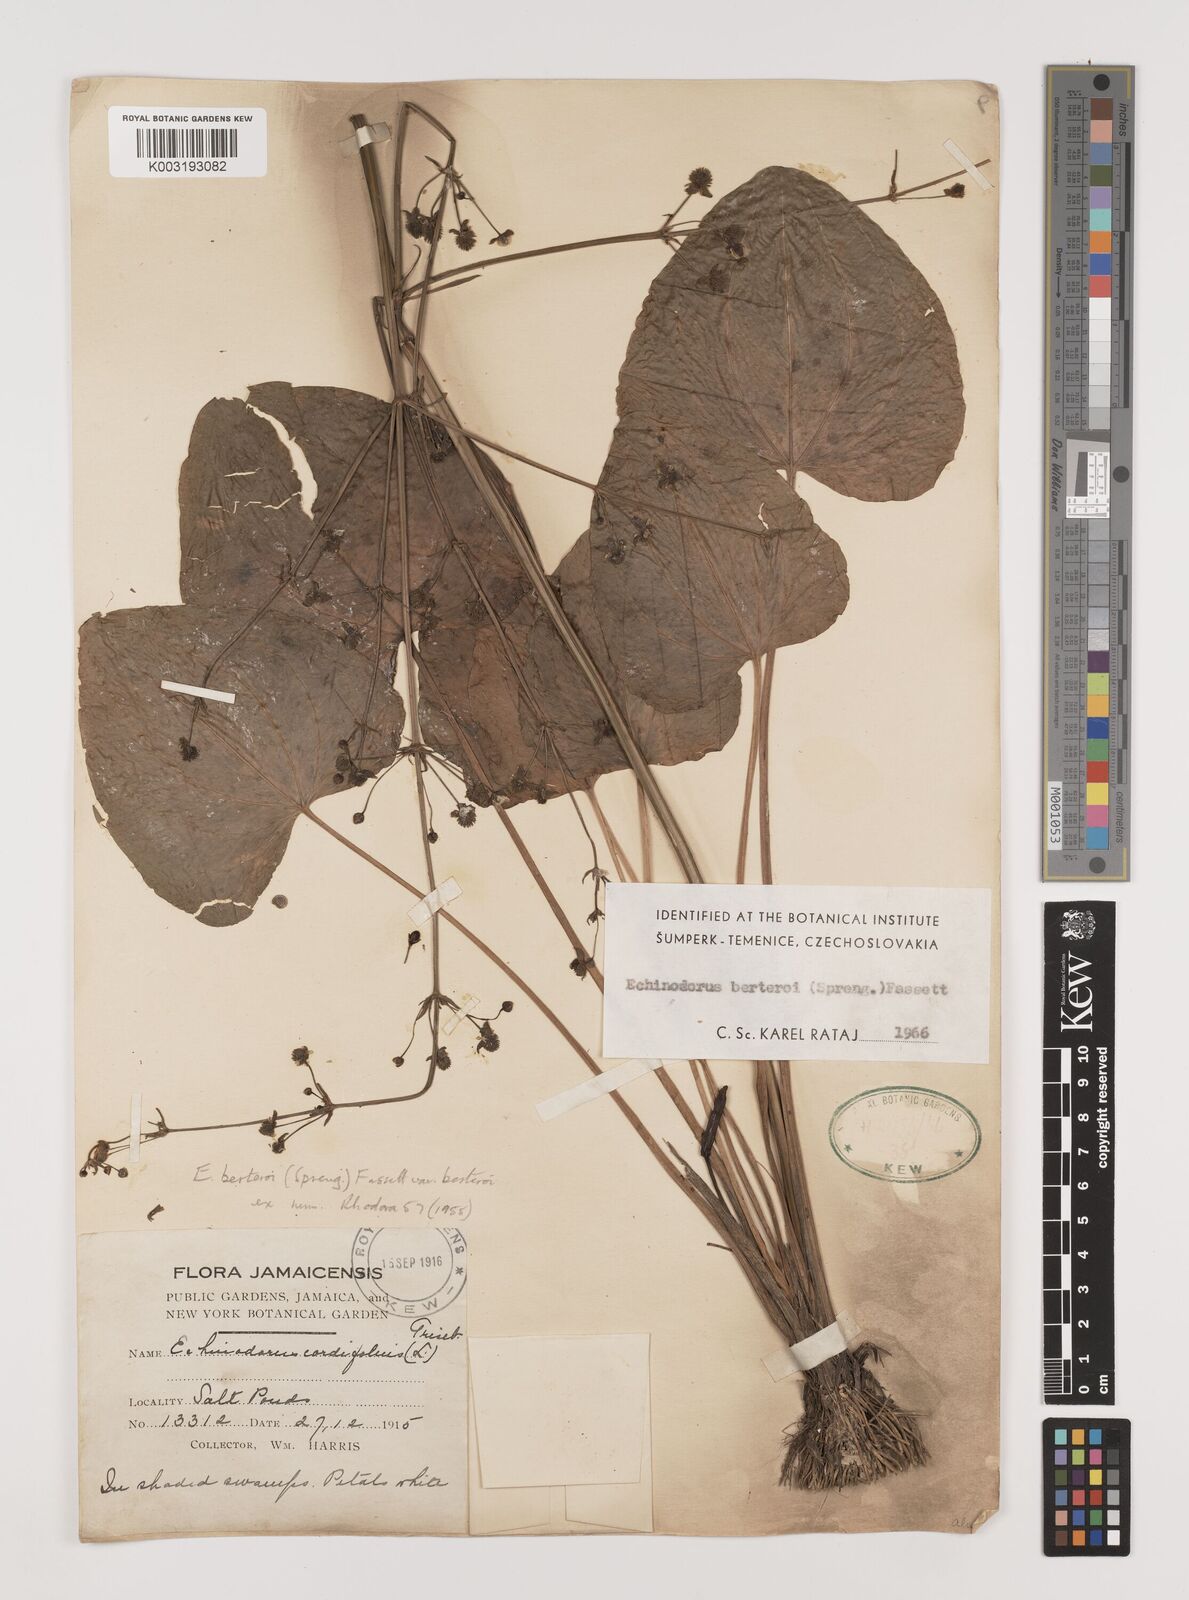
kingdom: Plantae
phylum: Tracheophyta
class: Liliopsida
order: Alismatales
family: Alismataceae
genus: Echinodorus
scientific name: Echinodorus berteroi
